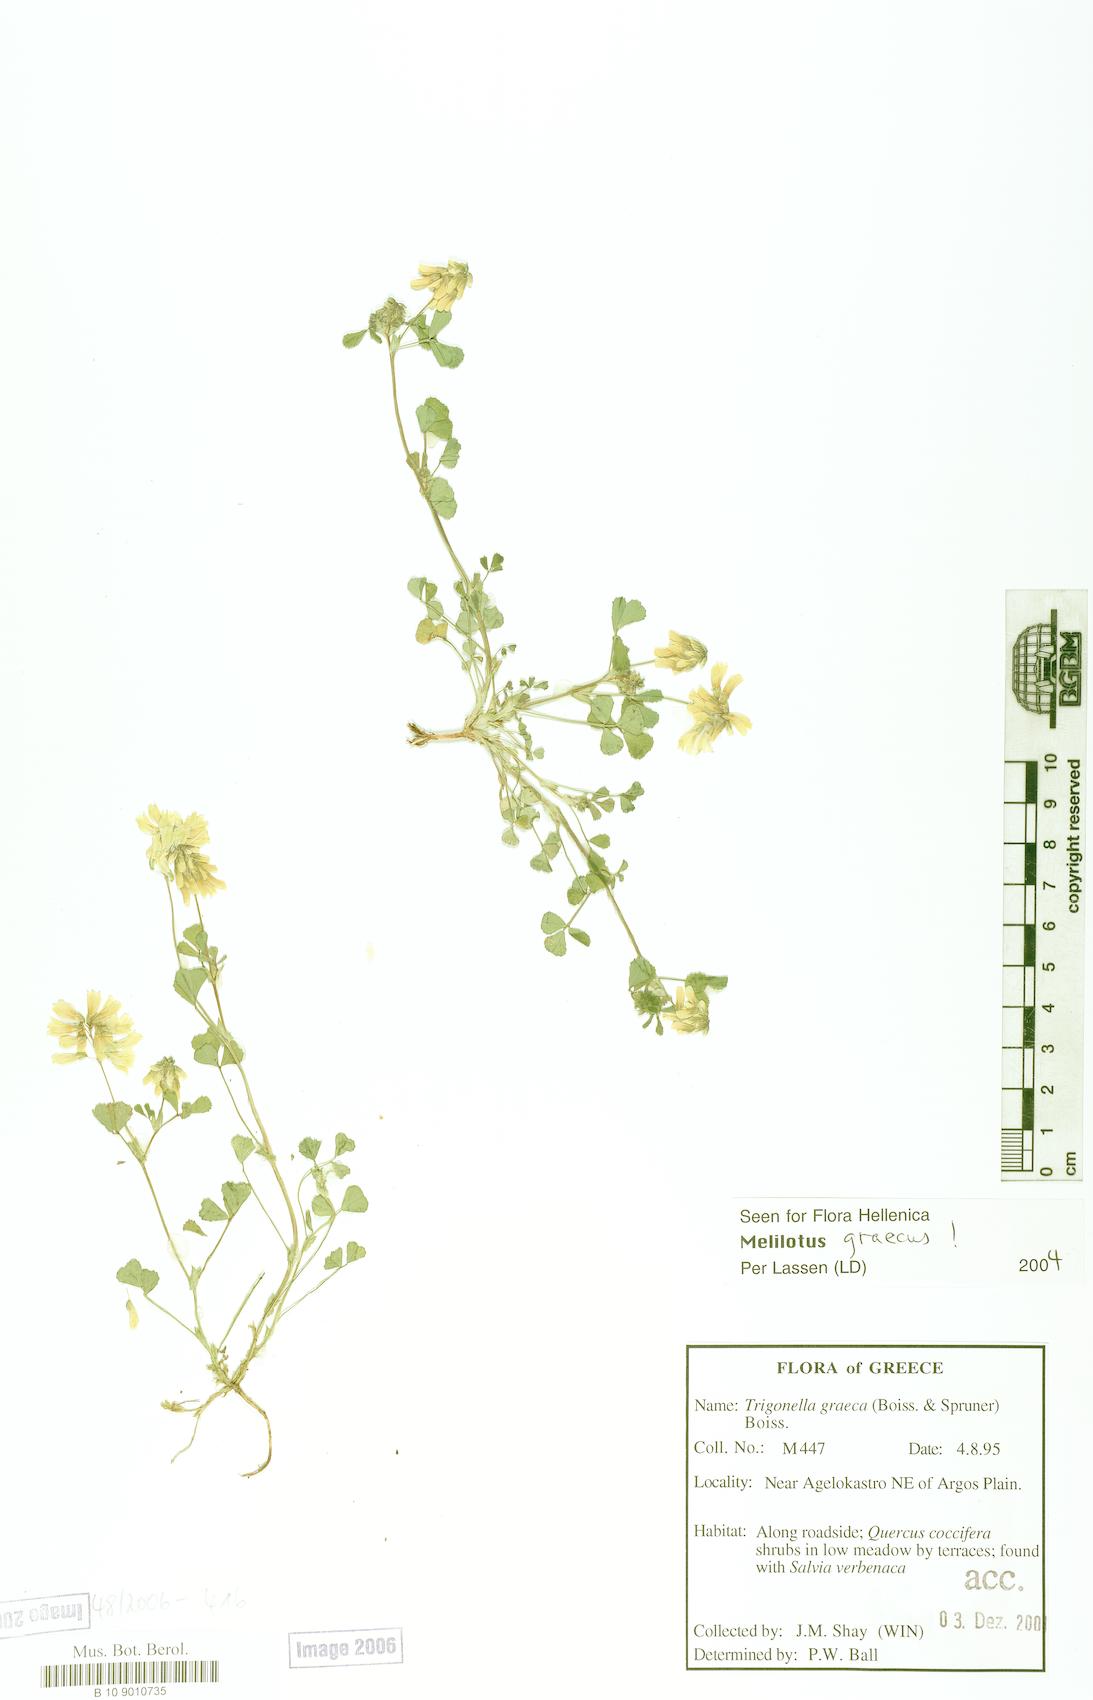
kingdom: Plantae
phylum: Tracheophyta
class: Magnoliopsida
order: Fabales
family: Fabaceae
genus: Trigonella
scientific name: Trigonella graeca
